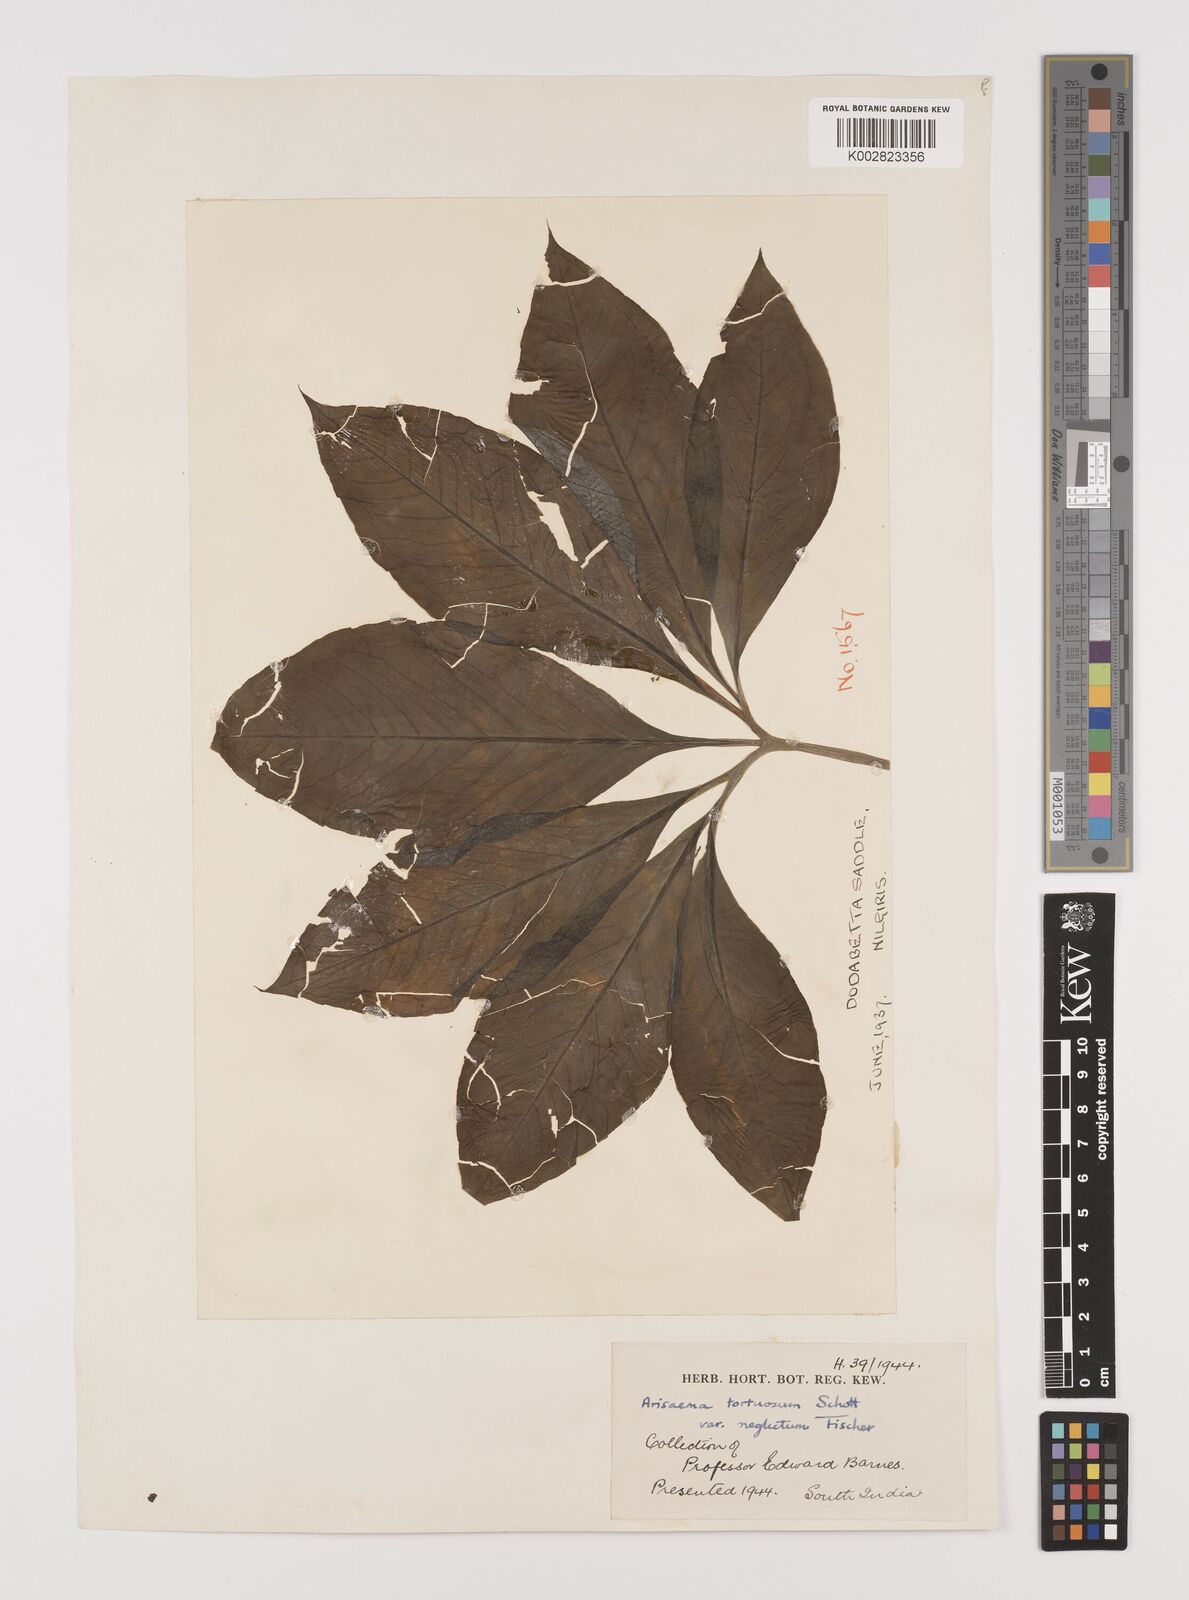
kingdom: Plantae
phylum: Tracheophyta
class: Liliopsida
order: Alismatales
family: Araceae
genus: Arisaema
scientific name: Arisaema tortuosum
